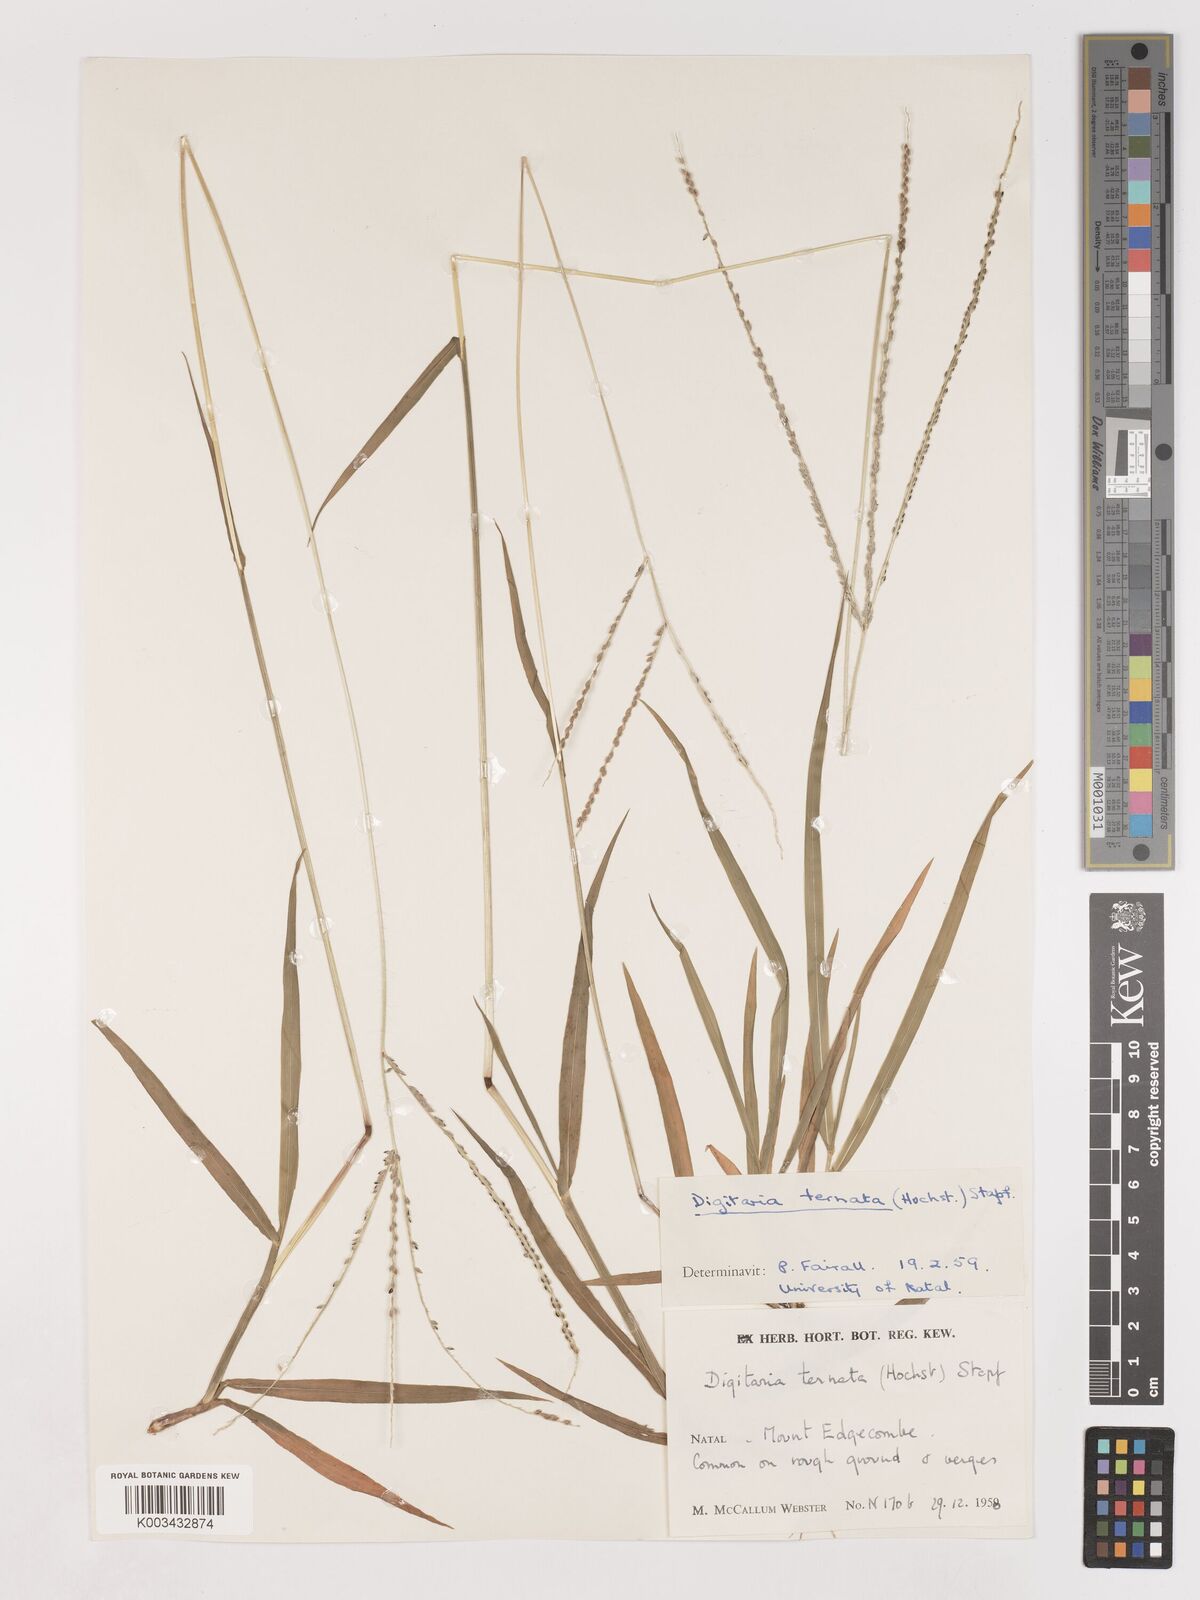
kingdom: Plantae
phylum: Tracheophyta
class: Liliopsida
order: Poales
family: Poaceae
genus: Digitaria
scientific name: Digitaria ternata
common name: Blackseed crabgrass
